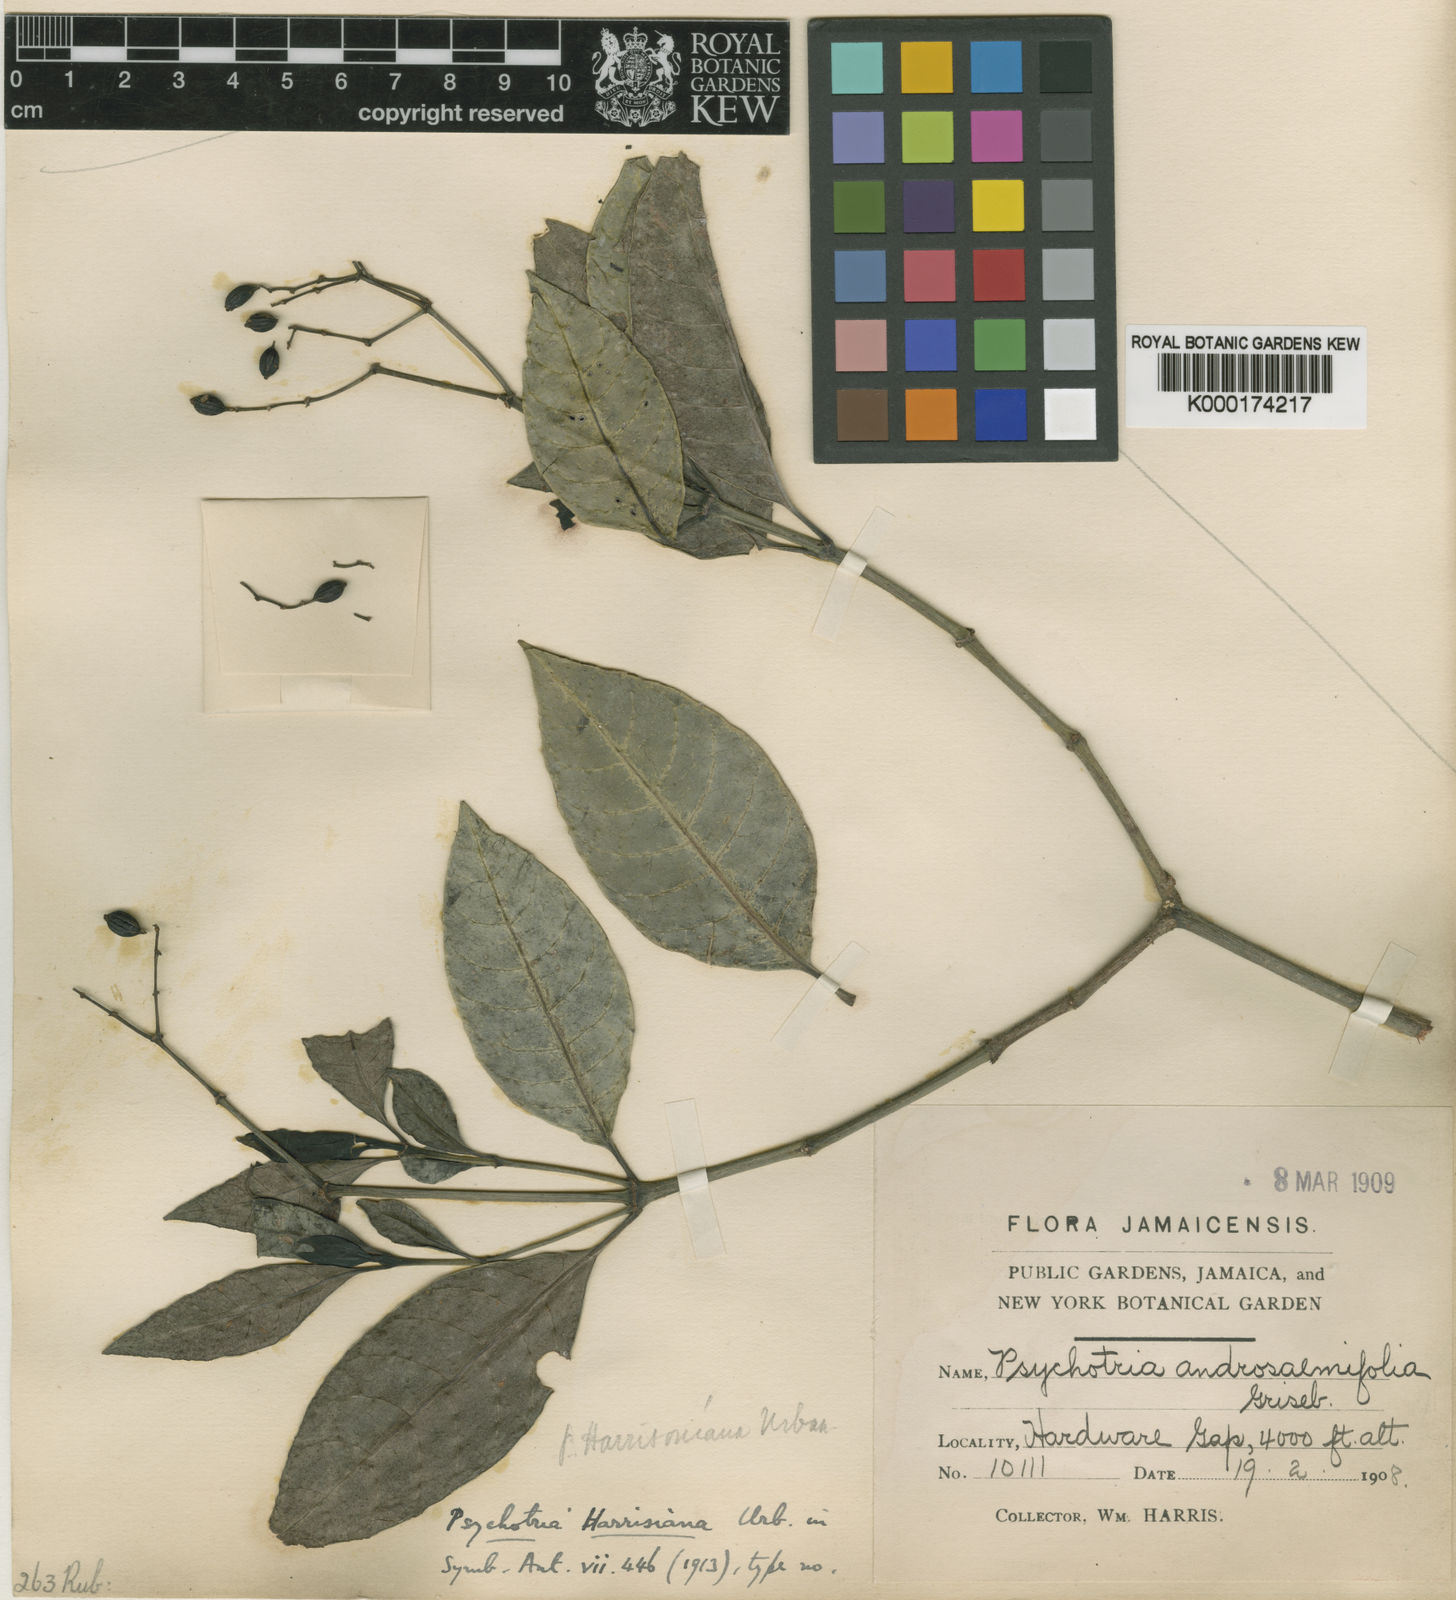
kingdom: Plantae
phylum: Tracheophyta
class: Magnoliopsida
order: Gentianales
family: Rubiaceae
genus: Psychotria
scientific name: Psychotria sloanei
